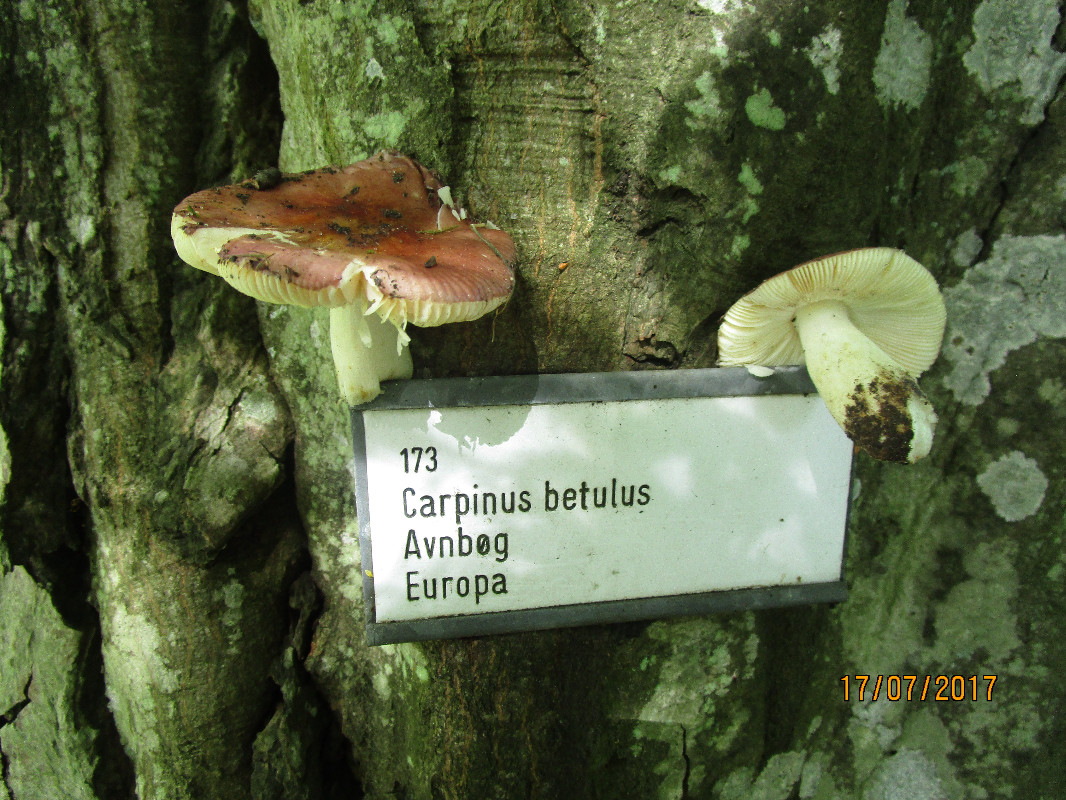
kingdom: Fungi
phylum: Basidiomycota
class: Agaricomycetes
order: Russulales
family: Russulaceae
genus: Russula
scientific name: Russula carpini
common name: avnbøg-skørhat
